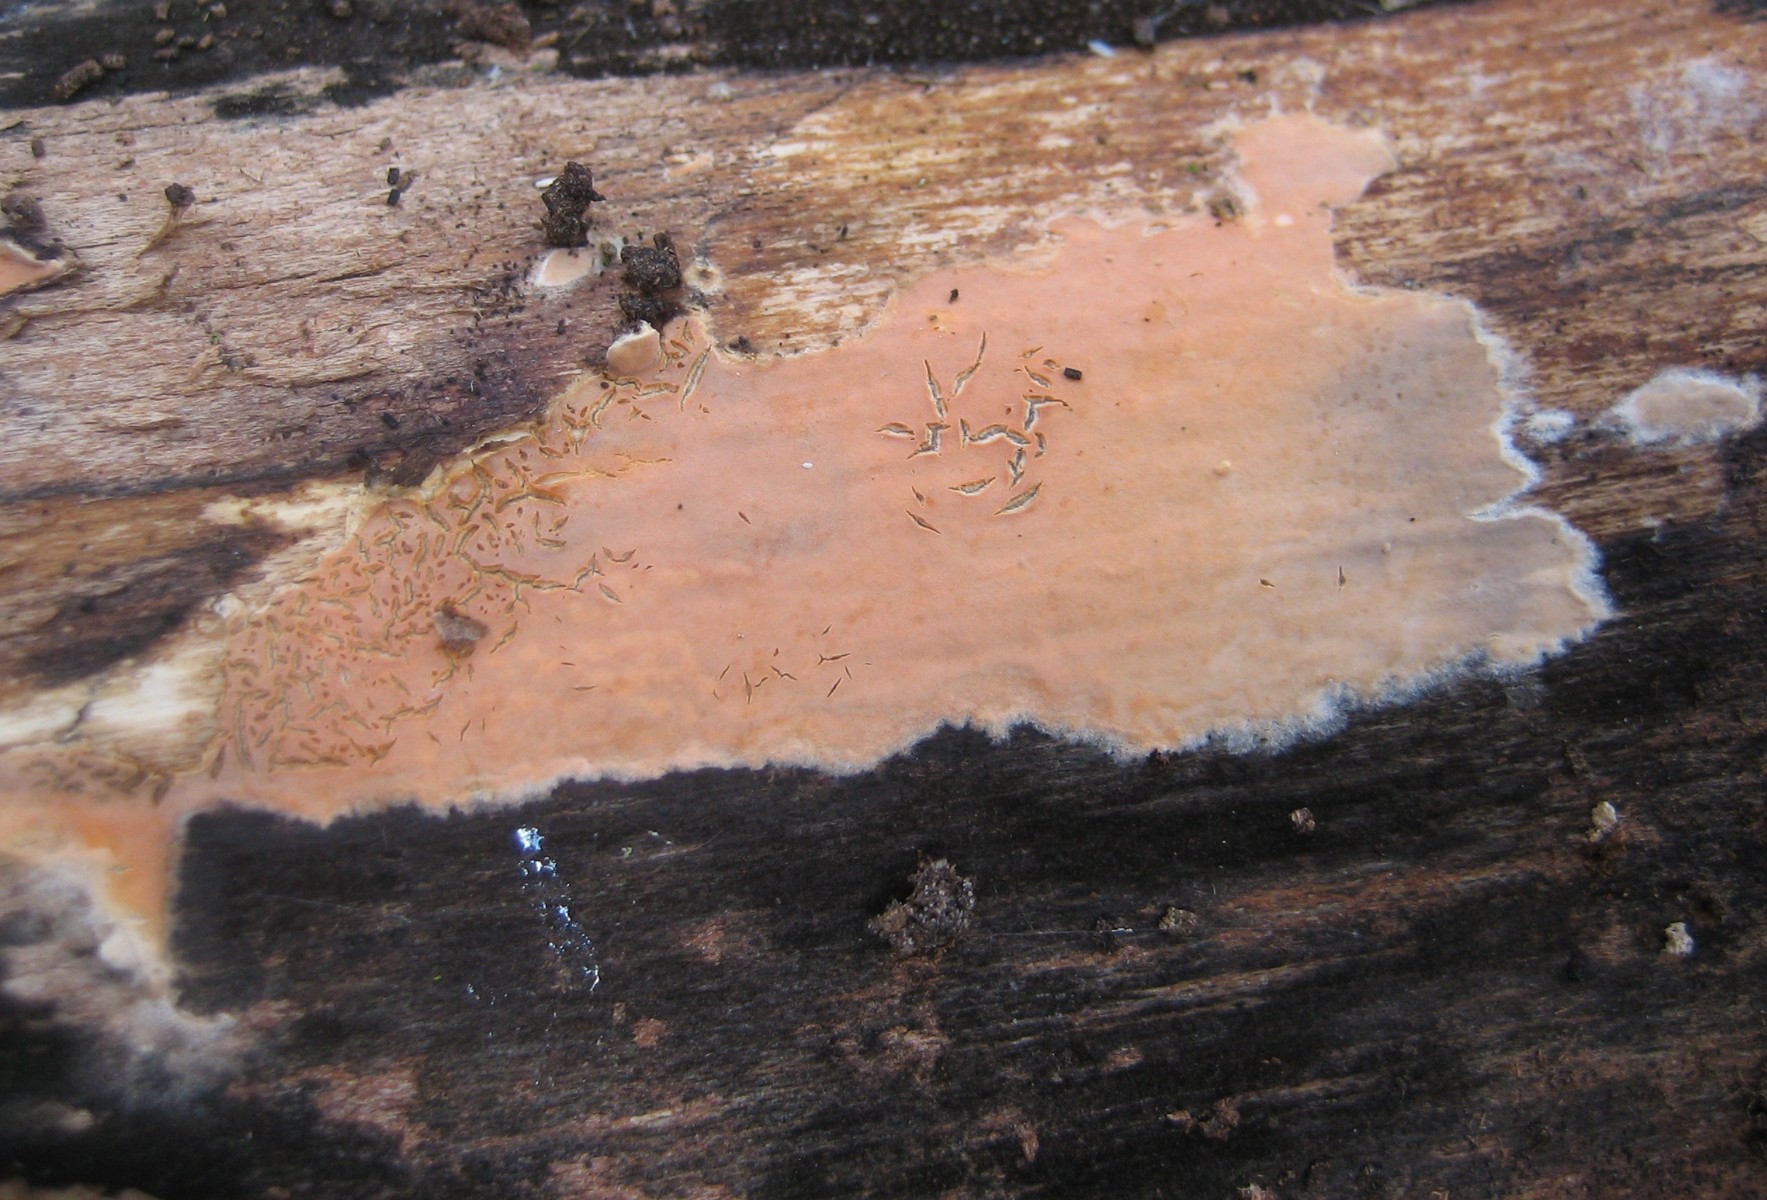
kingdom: Fungi
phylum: Basidiomycota
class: Agaricomycetes
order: Russulales
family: Peniophoraceae
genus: Peniophora
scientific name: Peniophora incarnata
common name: laksefarvet voksskind
